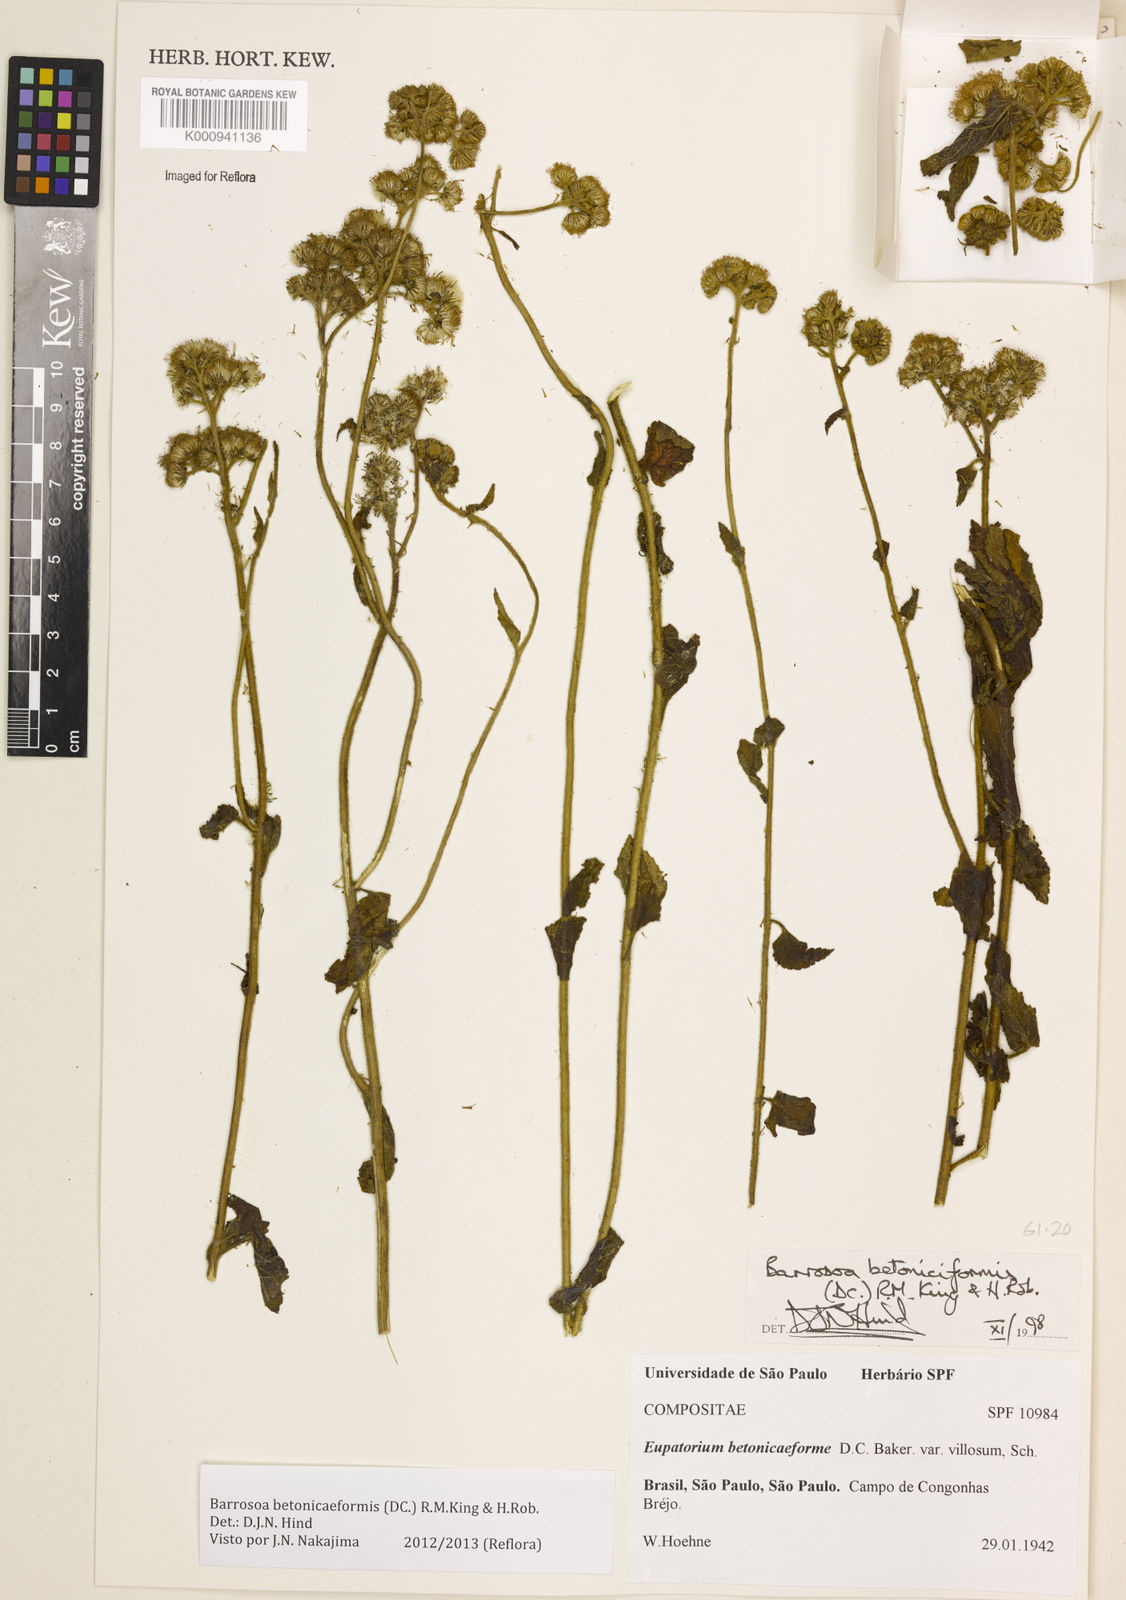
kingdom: Plantae
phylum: Tracheophyta
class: Magnoliopsida
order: Asterales
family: Asteraceae
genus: Barrosoa
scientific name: Barrosoa betoniciformis
